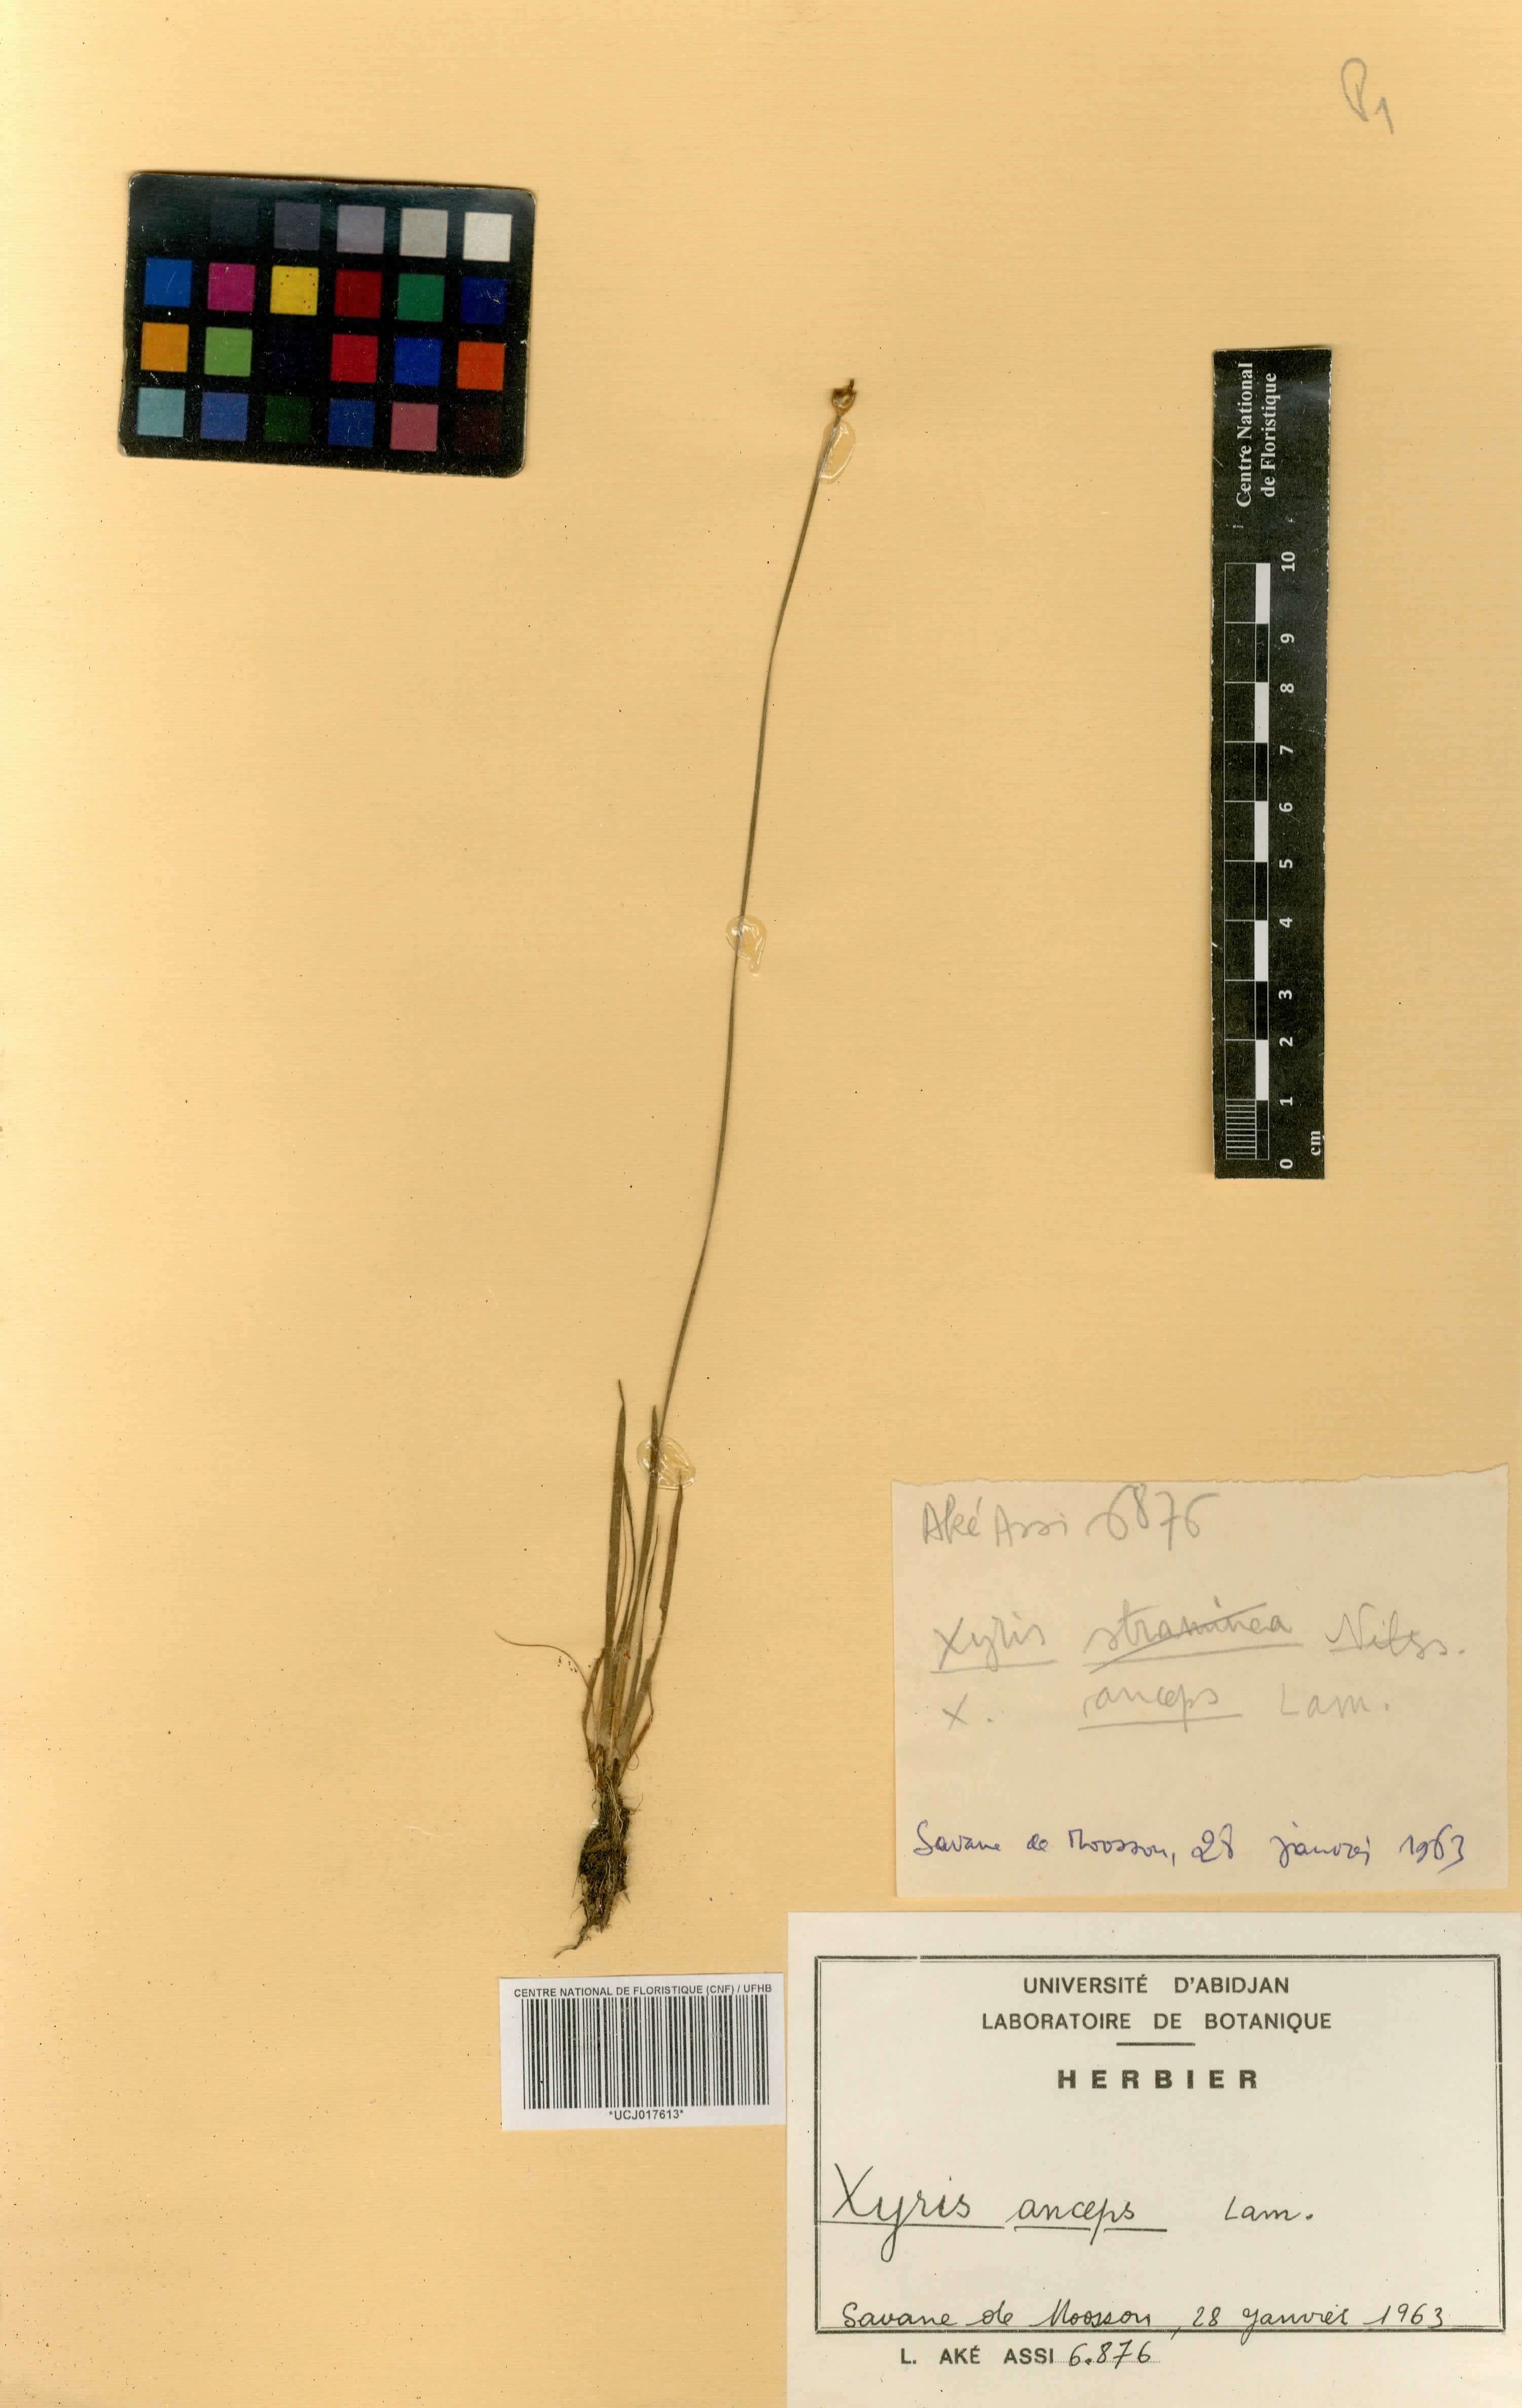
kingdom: Plantae
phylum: Tracheophyta
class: Liliopsida
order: Poales
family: Xyridaceae
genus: Xyris
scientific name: Xyris anceps
